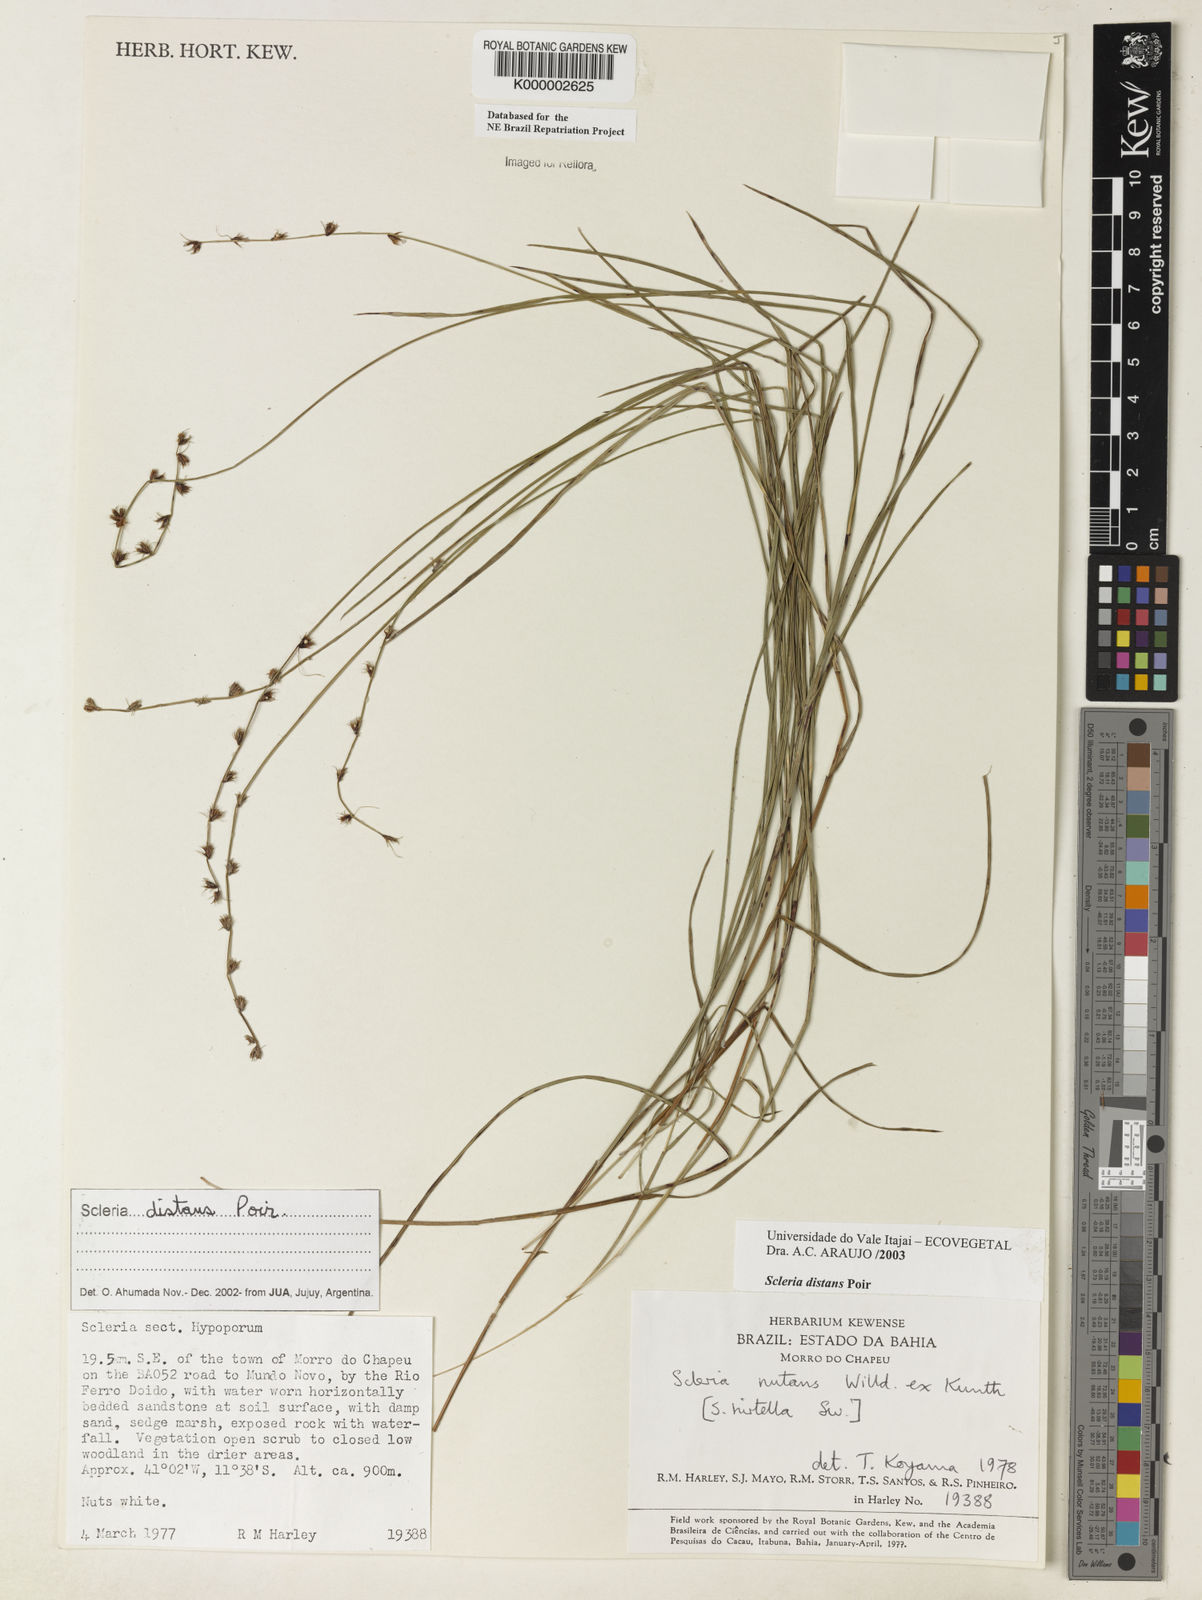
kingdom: Plantae
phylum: Tracheophyta
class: Liliopsida
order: Poales
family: Cyperaceae
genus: Scleria
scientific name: Scleria distans
